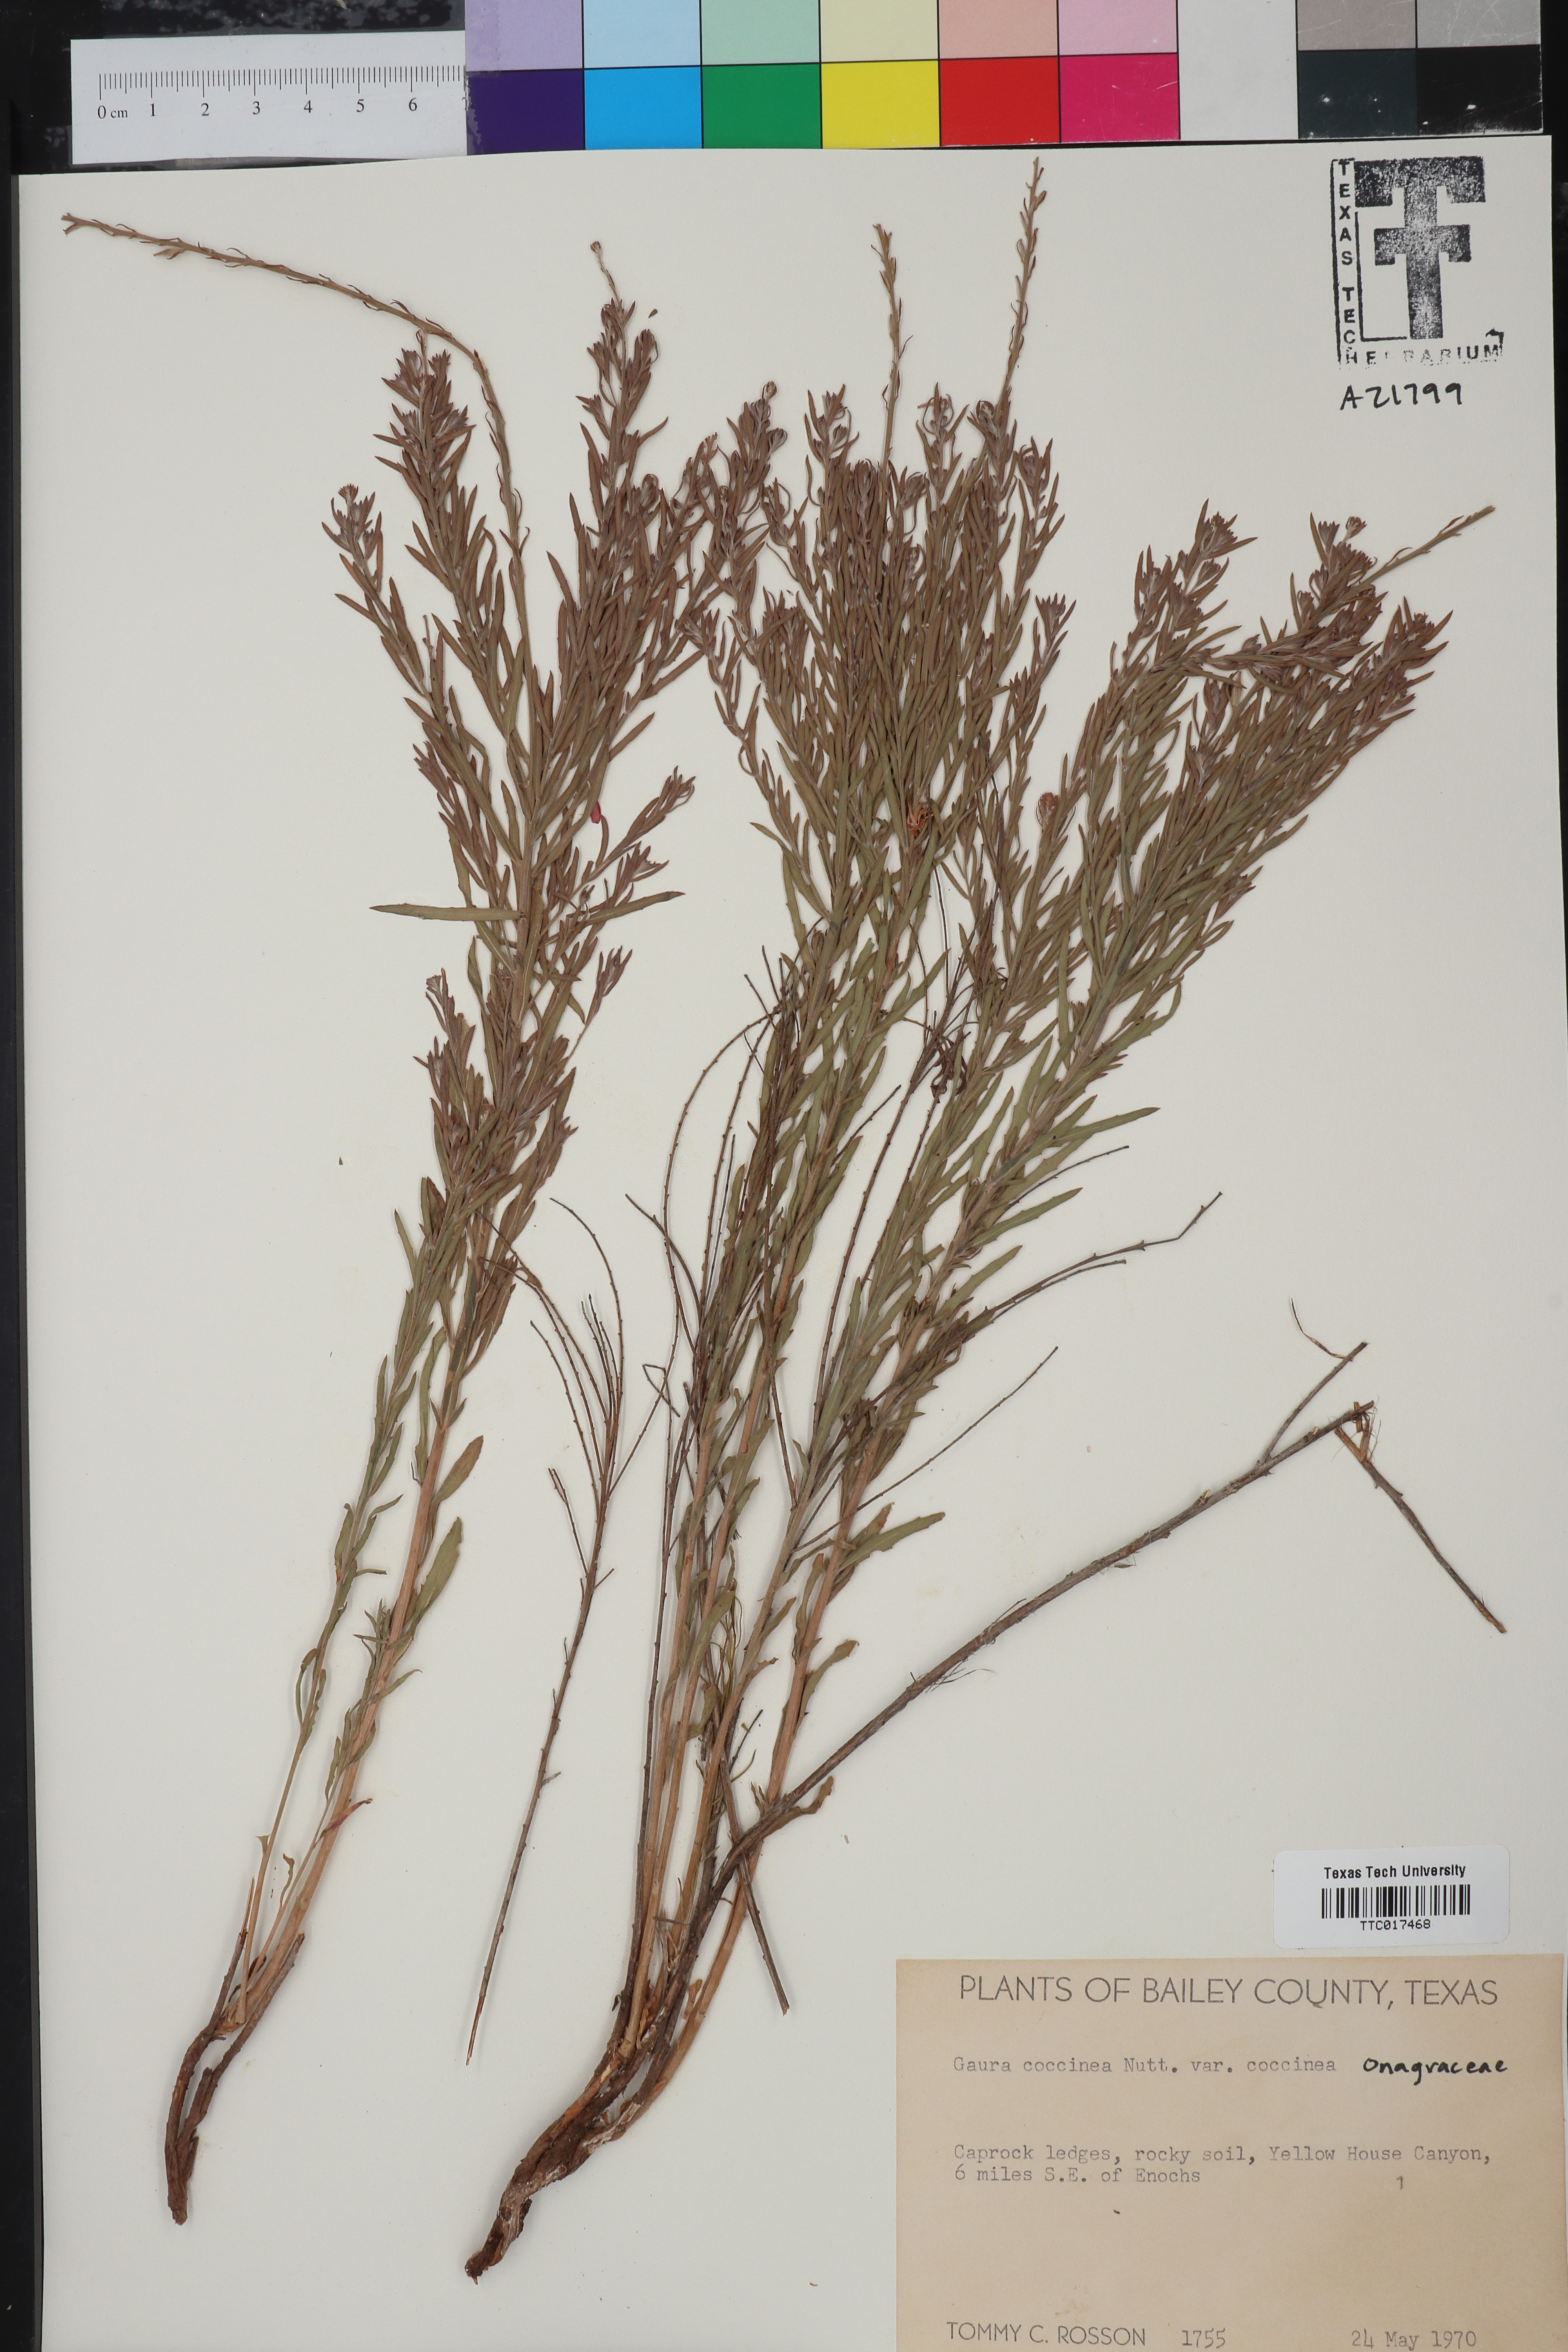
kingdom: Plantae
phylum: Tracheophyta
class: Magnoliopsida
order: Myrtales
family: Onagraceae
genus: Oenothera
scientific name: Oenothera suffrutescens
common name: Scarlet beeblossom
